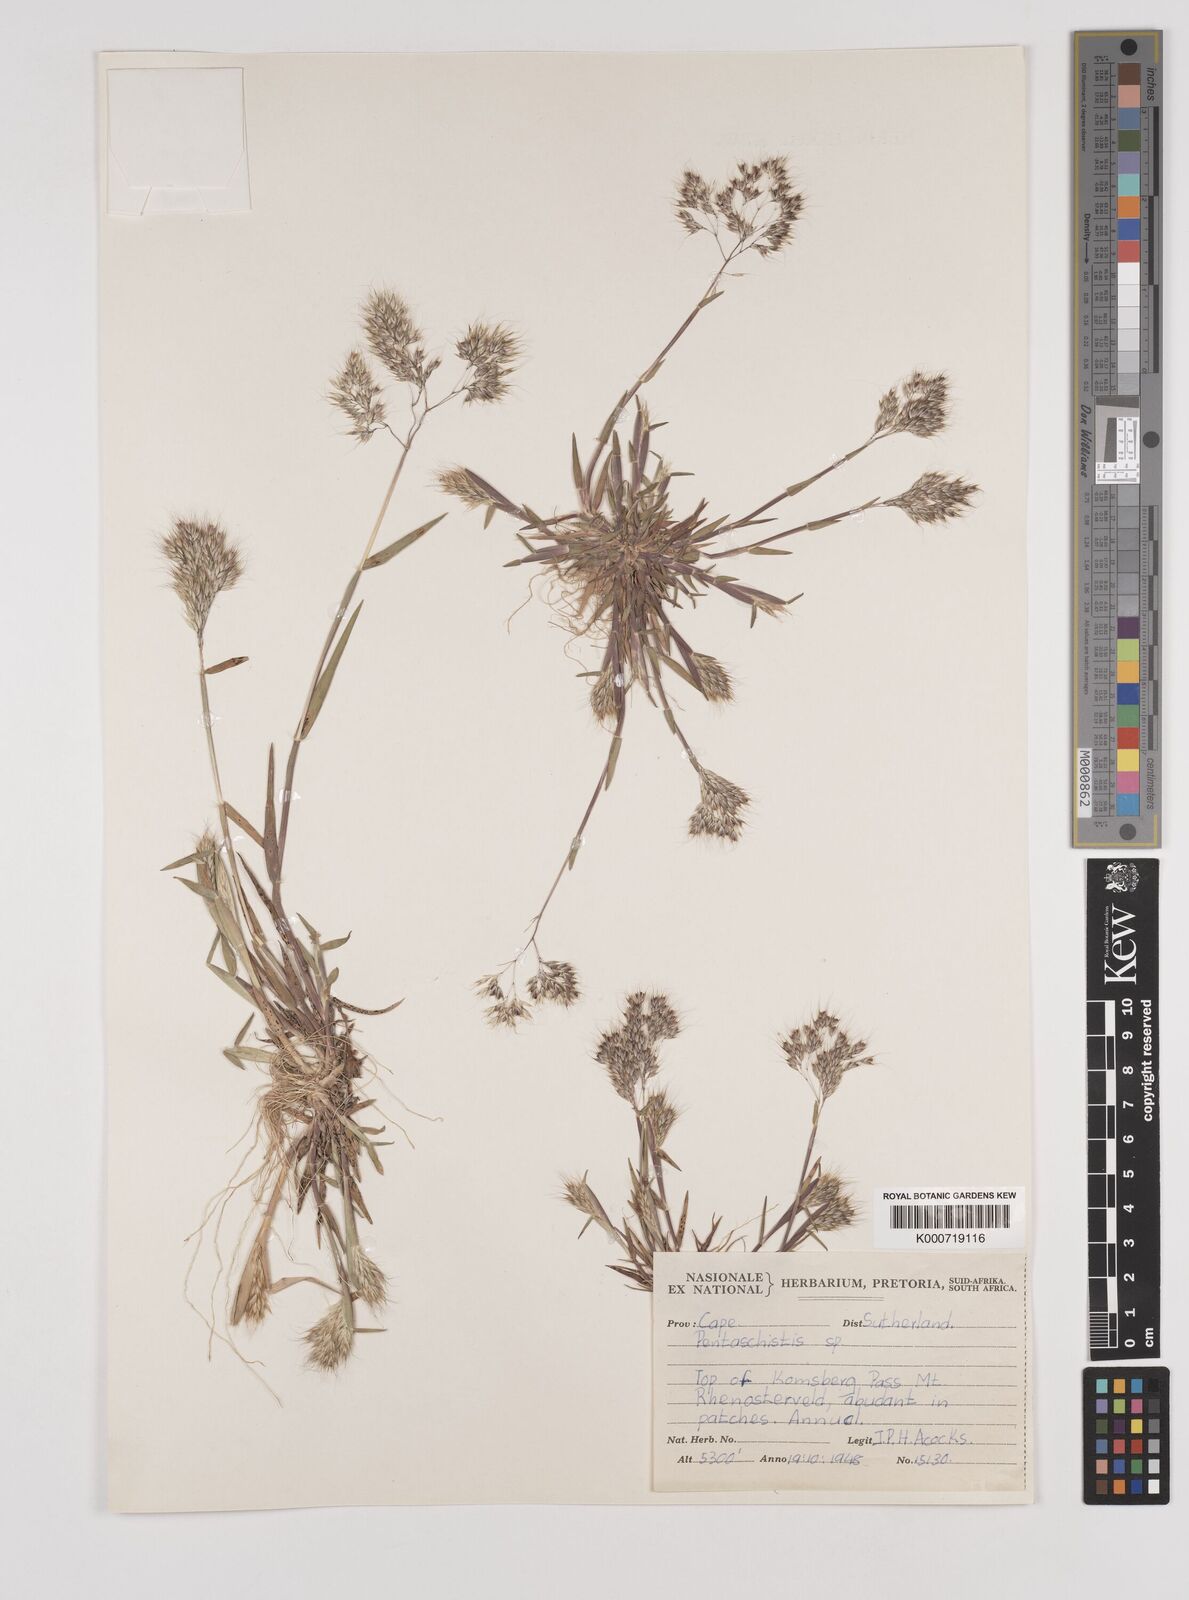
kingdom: Plantae
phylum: Tracheophyta
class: Liliopsida
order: Poales
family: Poaceae
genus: Pentameris
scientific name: Pentameris airoides
